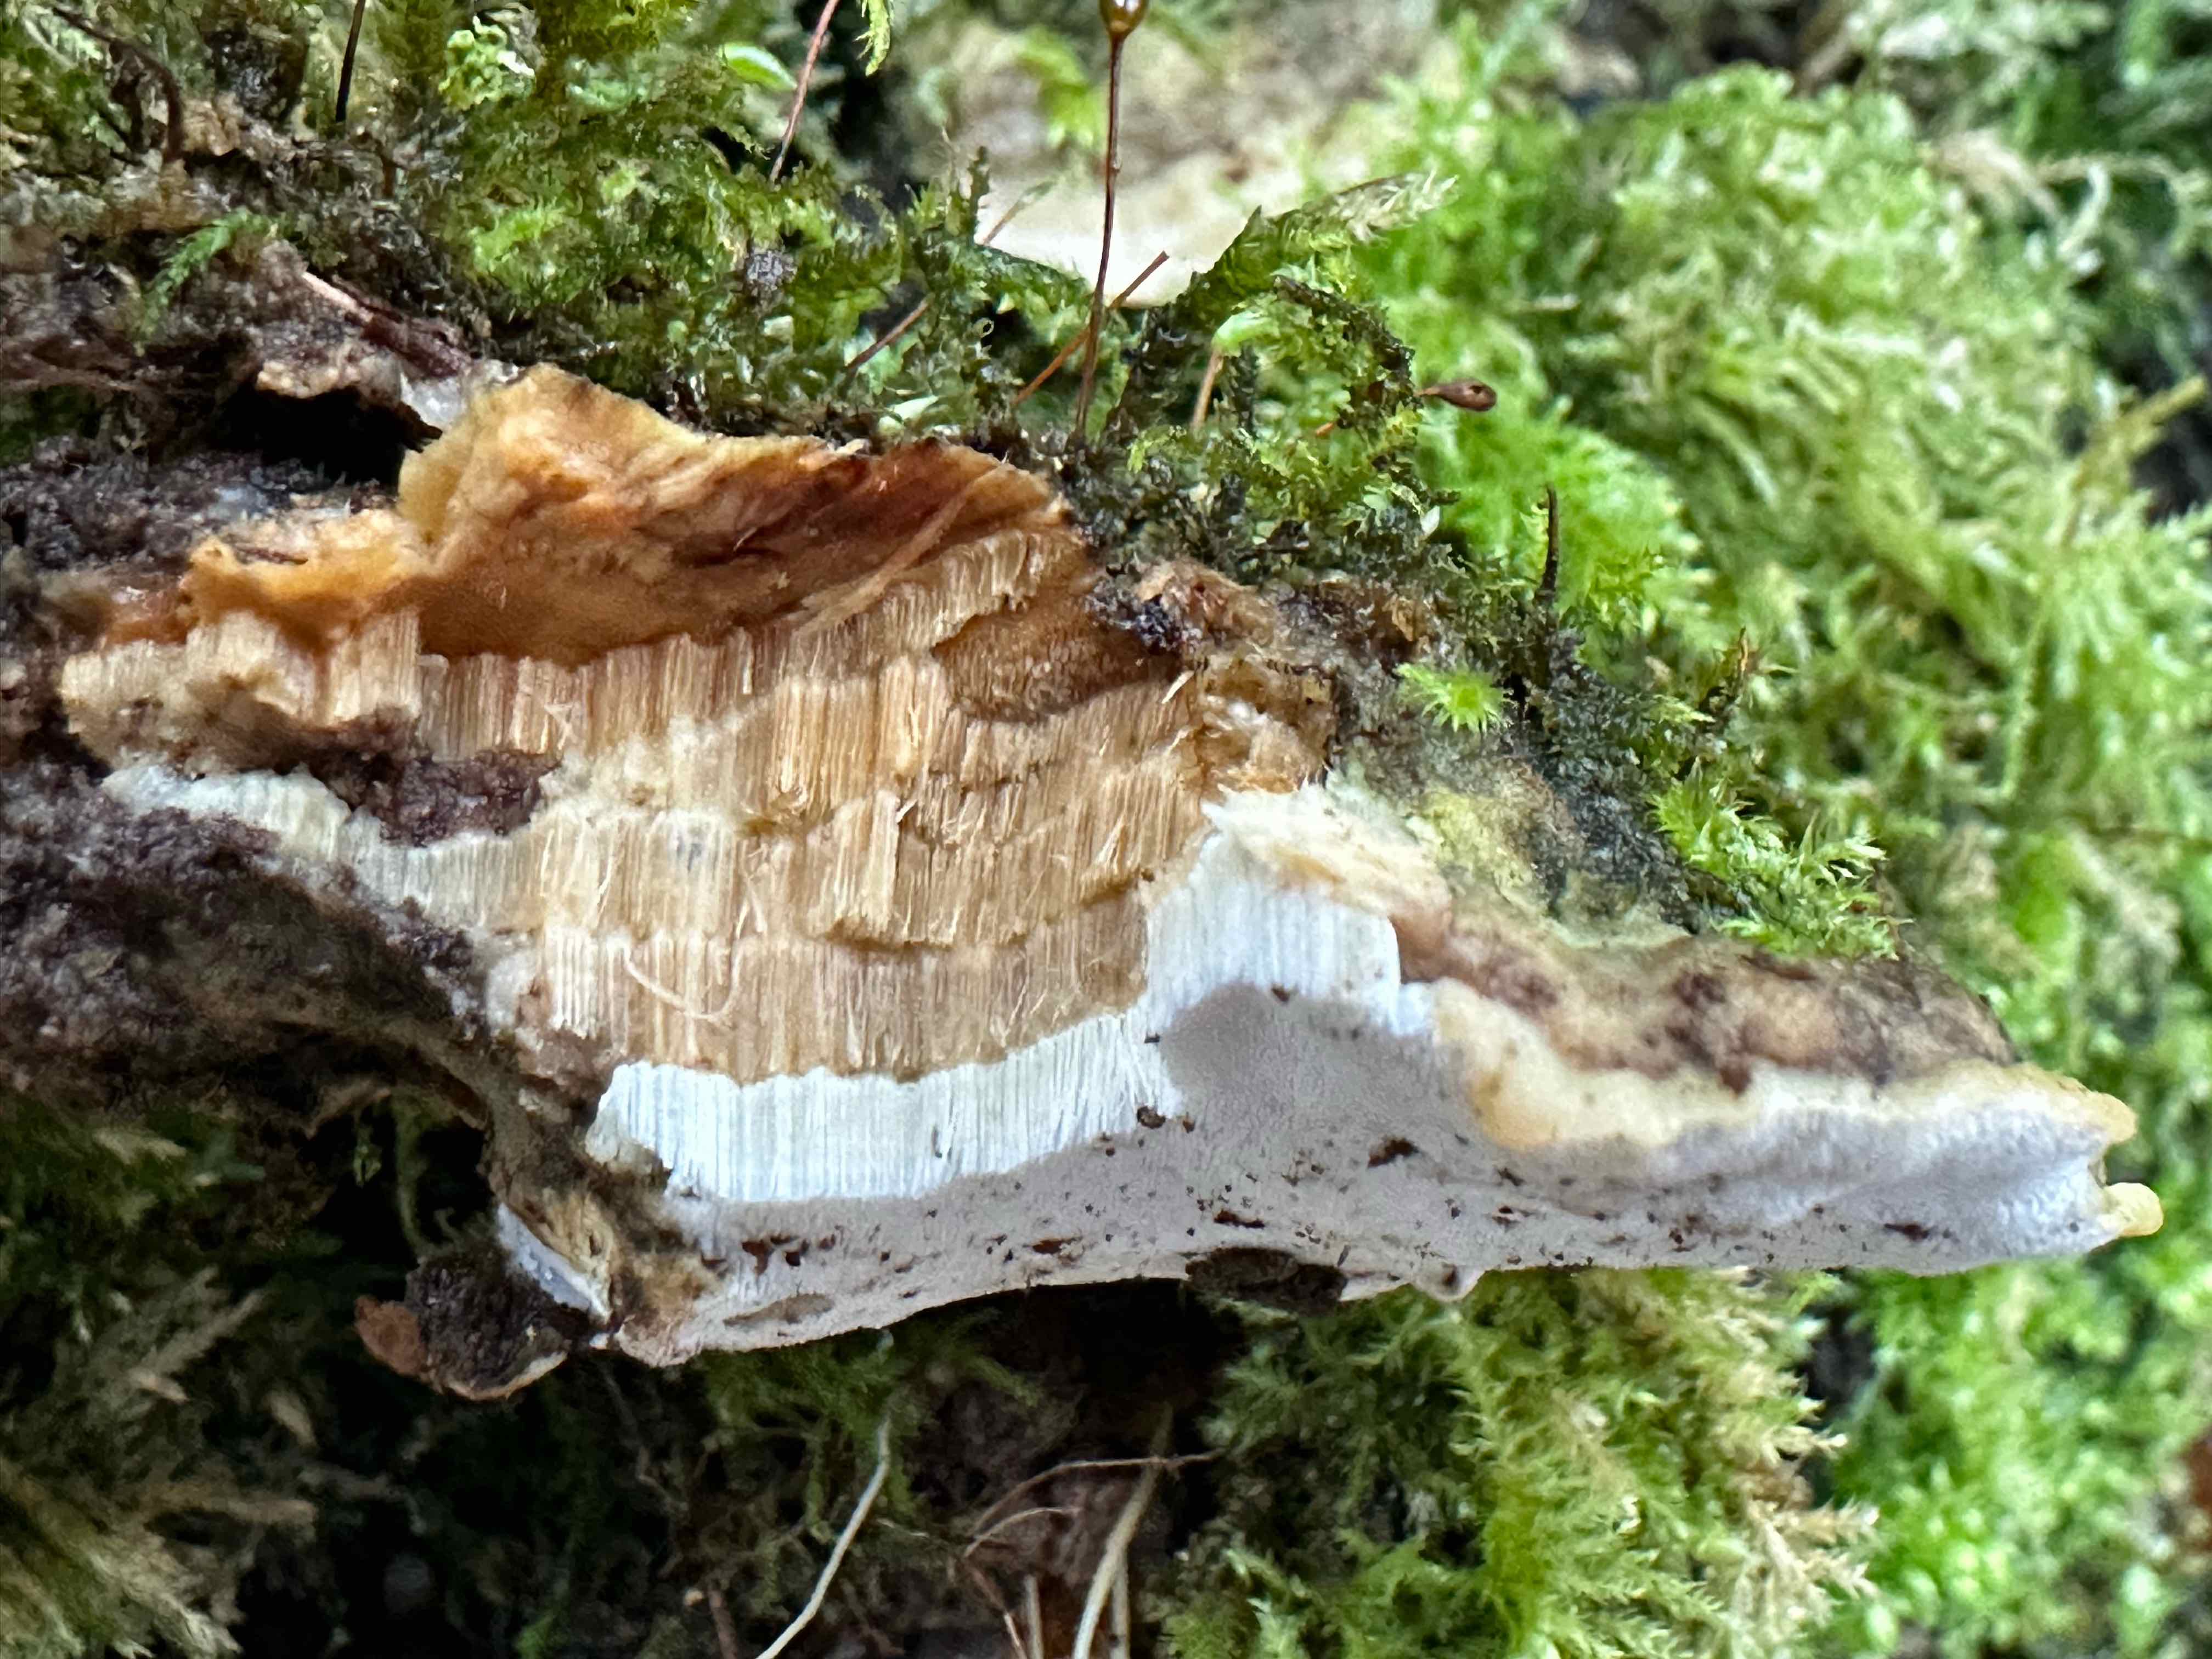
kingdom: Fungi
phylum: Basidiomycota
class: Agaricomycetes
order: Hymenochaetales
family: Oxyporaceae
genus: Oxyporus
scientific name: Oxyporus populinus
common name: sammenvokset trylleporesvamp
